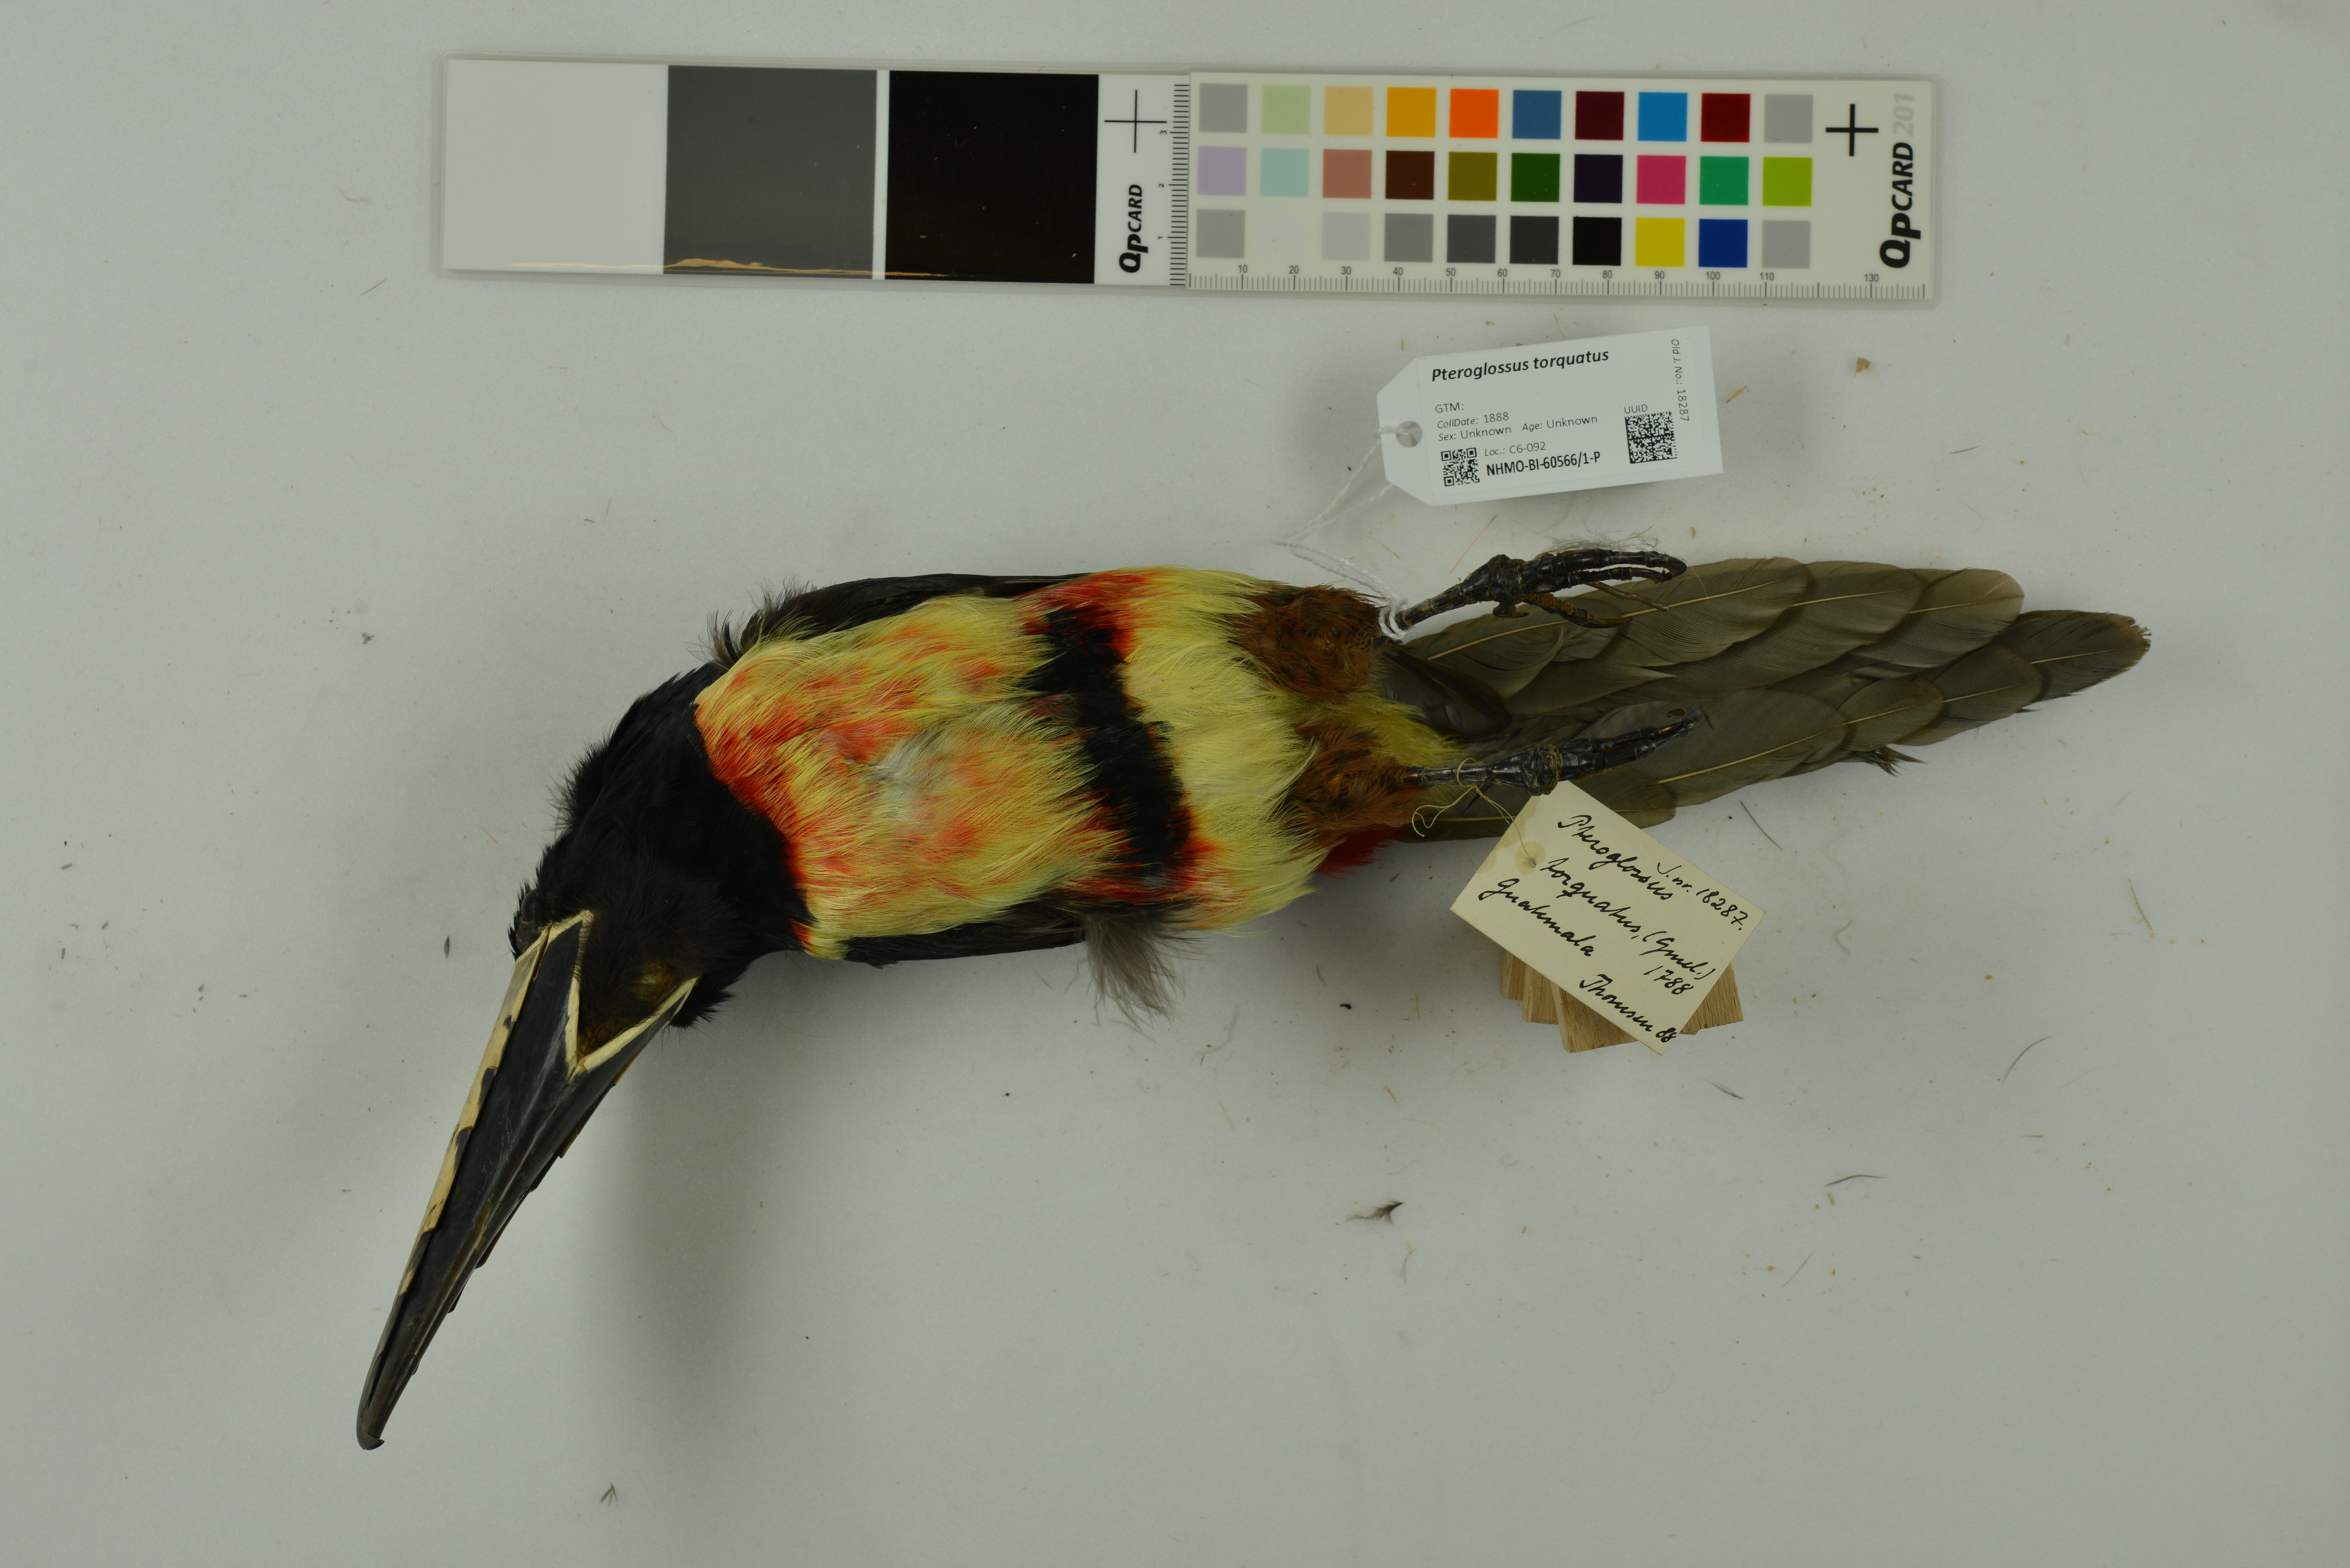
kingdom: Animalia
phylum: Chordata
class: Aves
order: Piciformes
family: Ramphastidae
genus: Pteroglossus
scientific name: Pteroglossus torquatus
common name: Collared aracari
